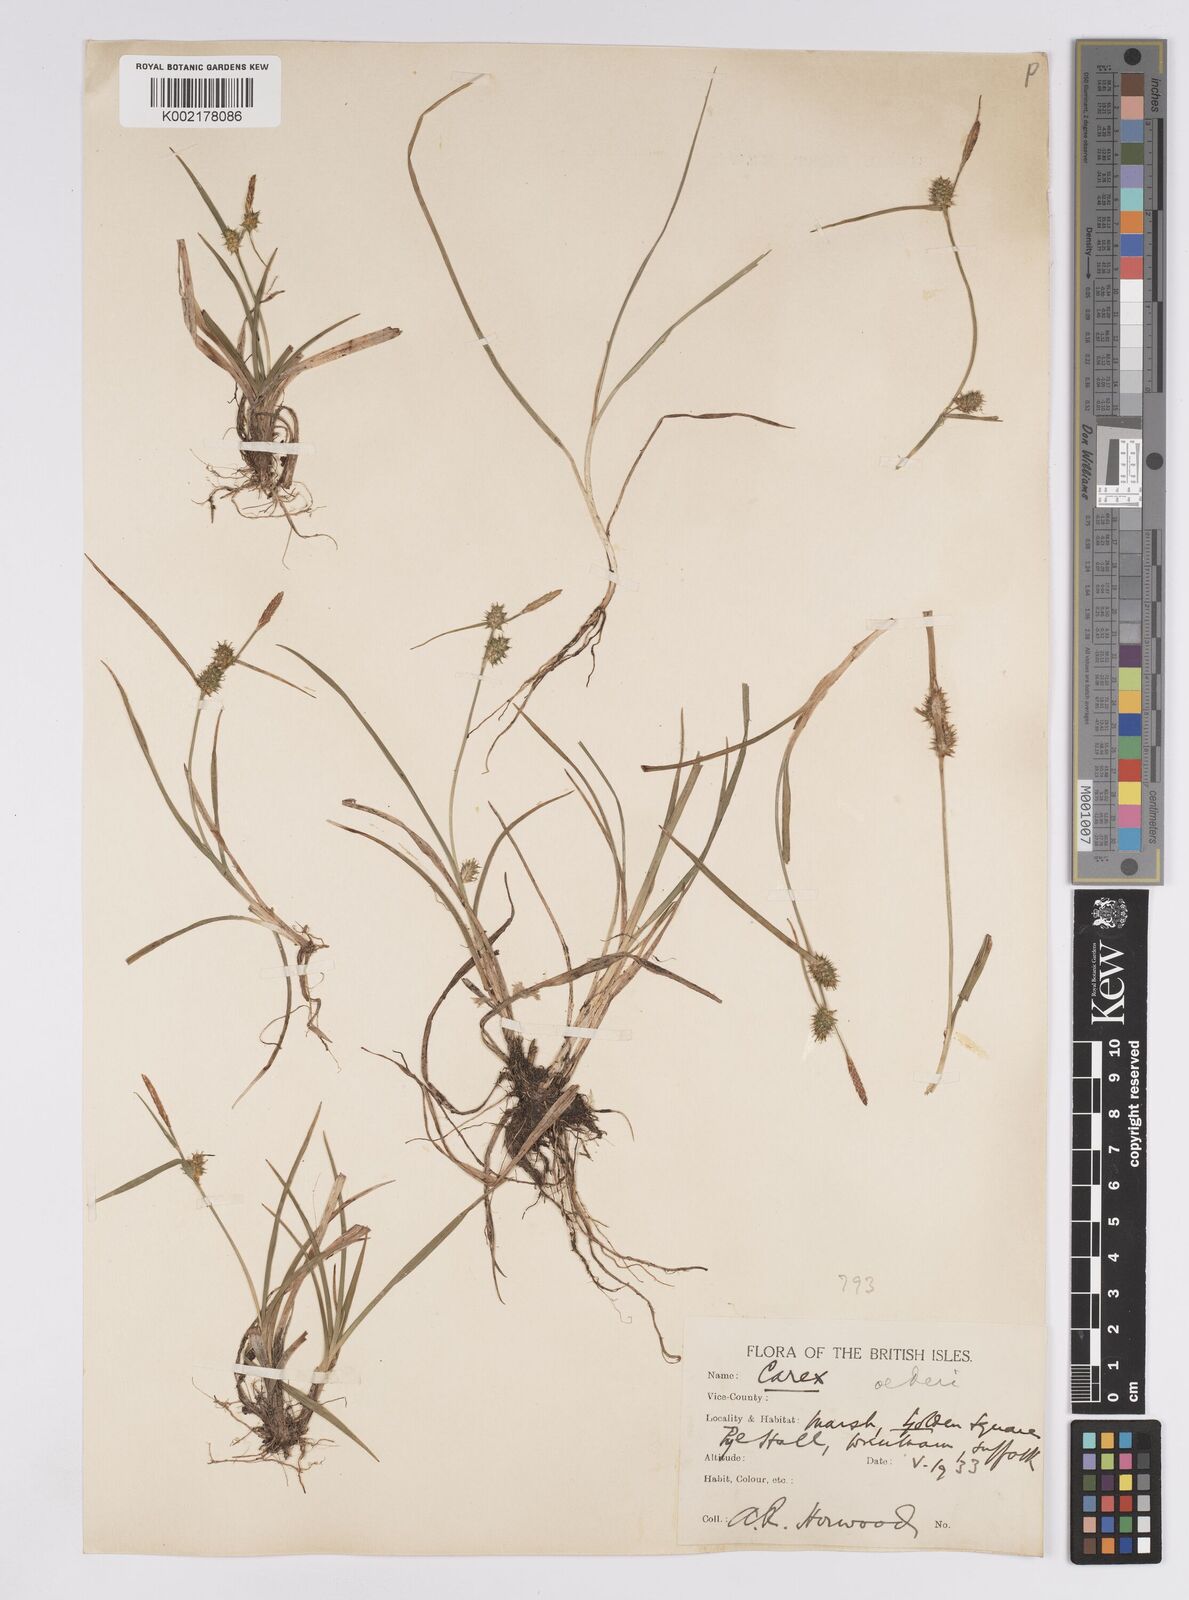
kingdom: Plantae
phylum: Tracheophyta
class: Liliopsida
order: Poales
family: Cyperaceae
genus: Carex
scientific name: Carex demissa
